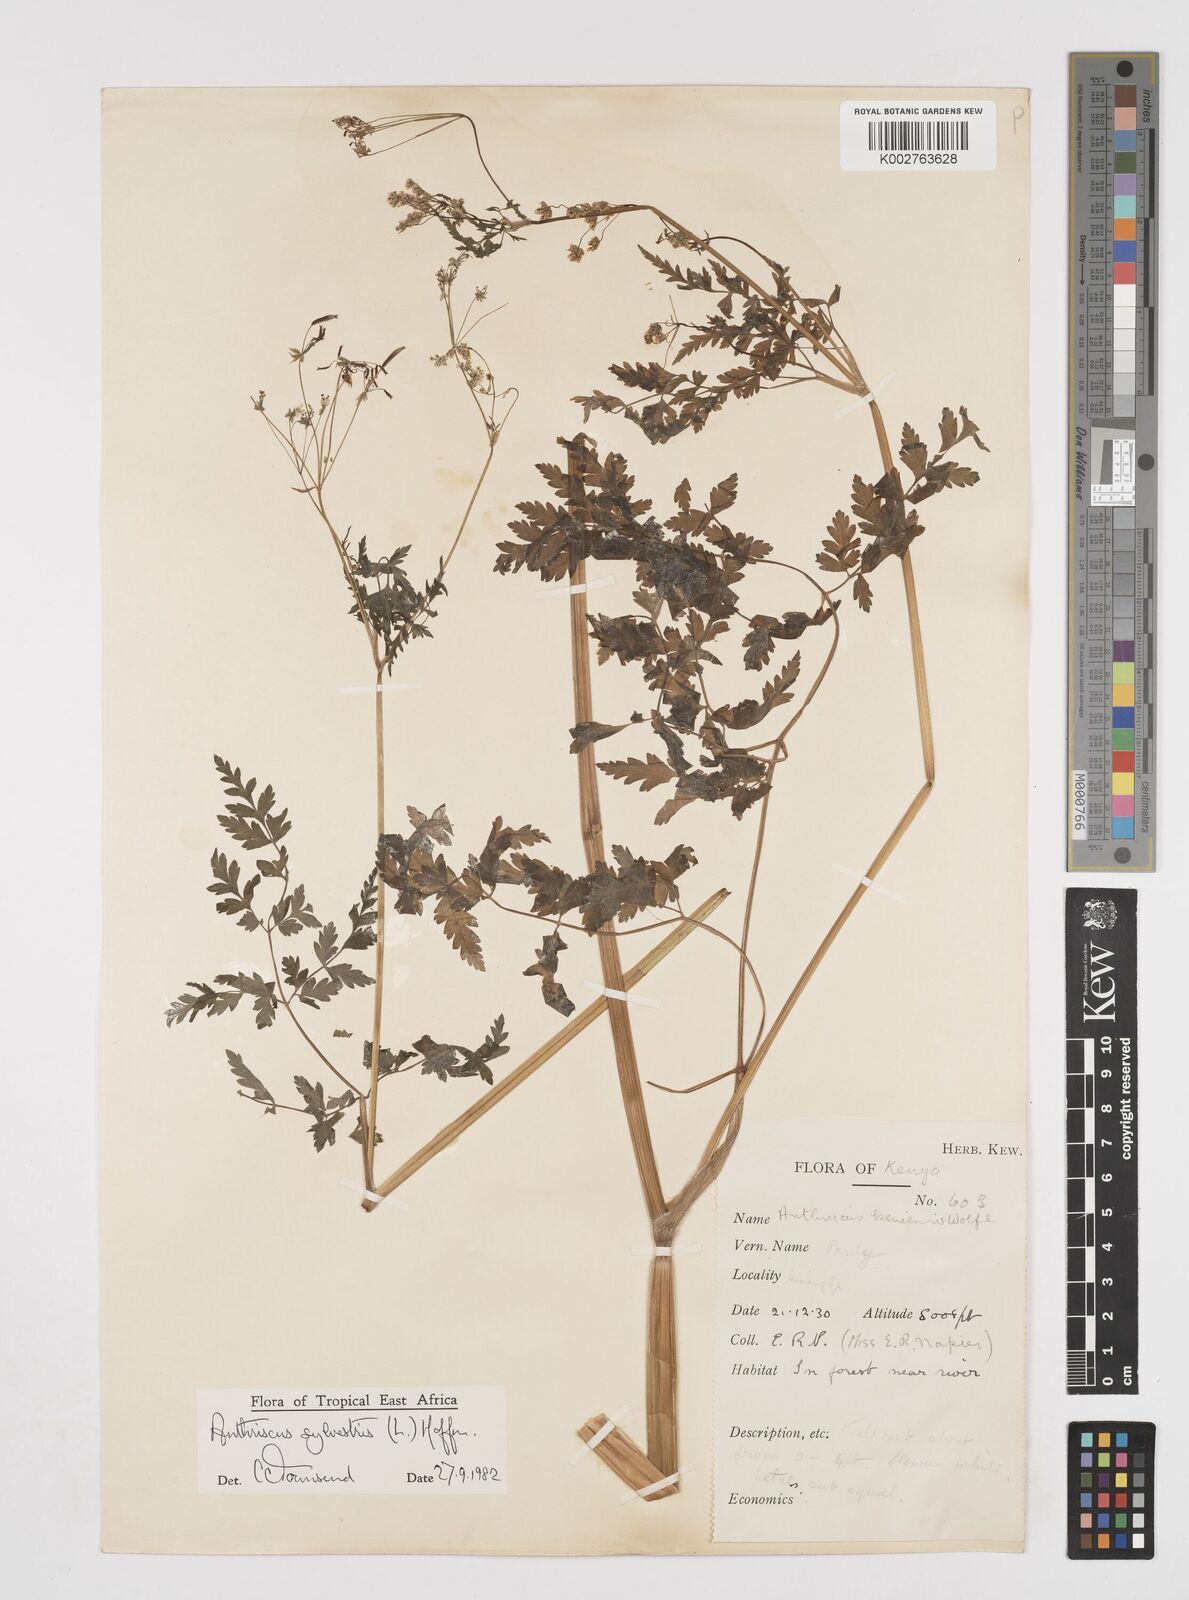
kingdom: Plantae
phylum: Tracheophyta
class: Magnoliopsida
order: Apiales
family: Apiaceae
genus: Anthriscus
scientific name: Anthriscus sylvestris
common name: Cow parsley
